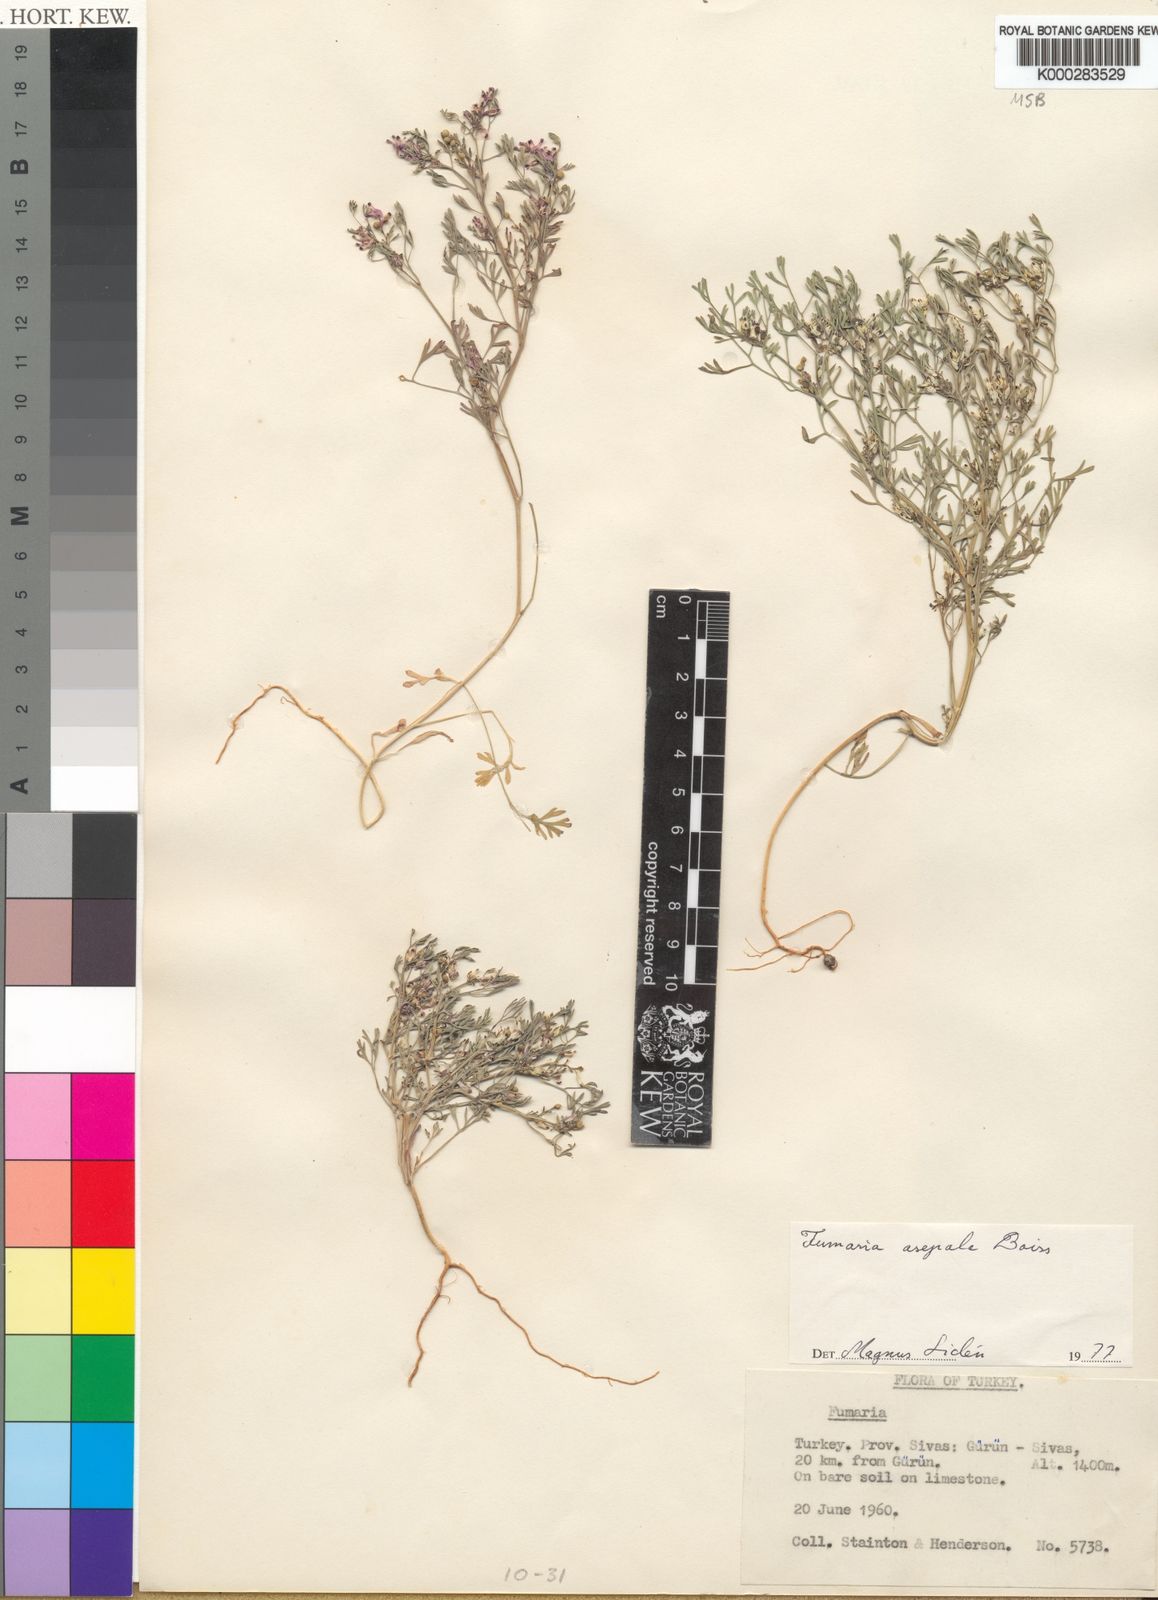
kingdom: Plantae
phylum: Tracheophyta
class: Magnoliopsida
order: Ranunculales
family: Papaveraceae
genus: Fumaria
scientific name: Fumaria asepala
